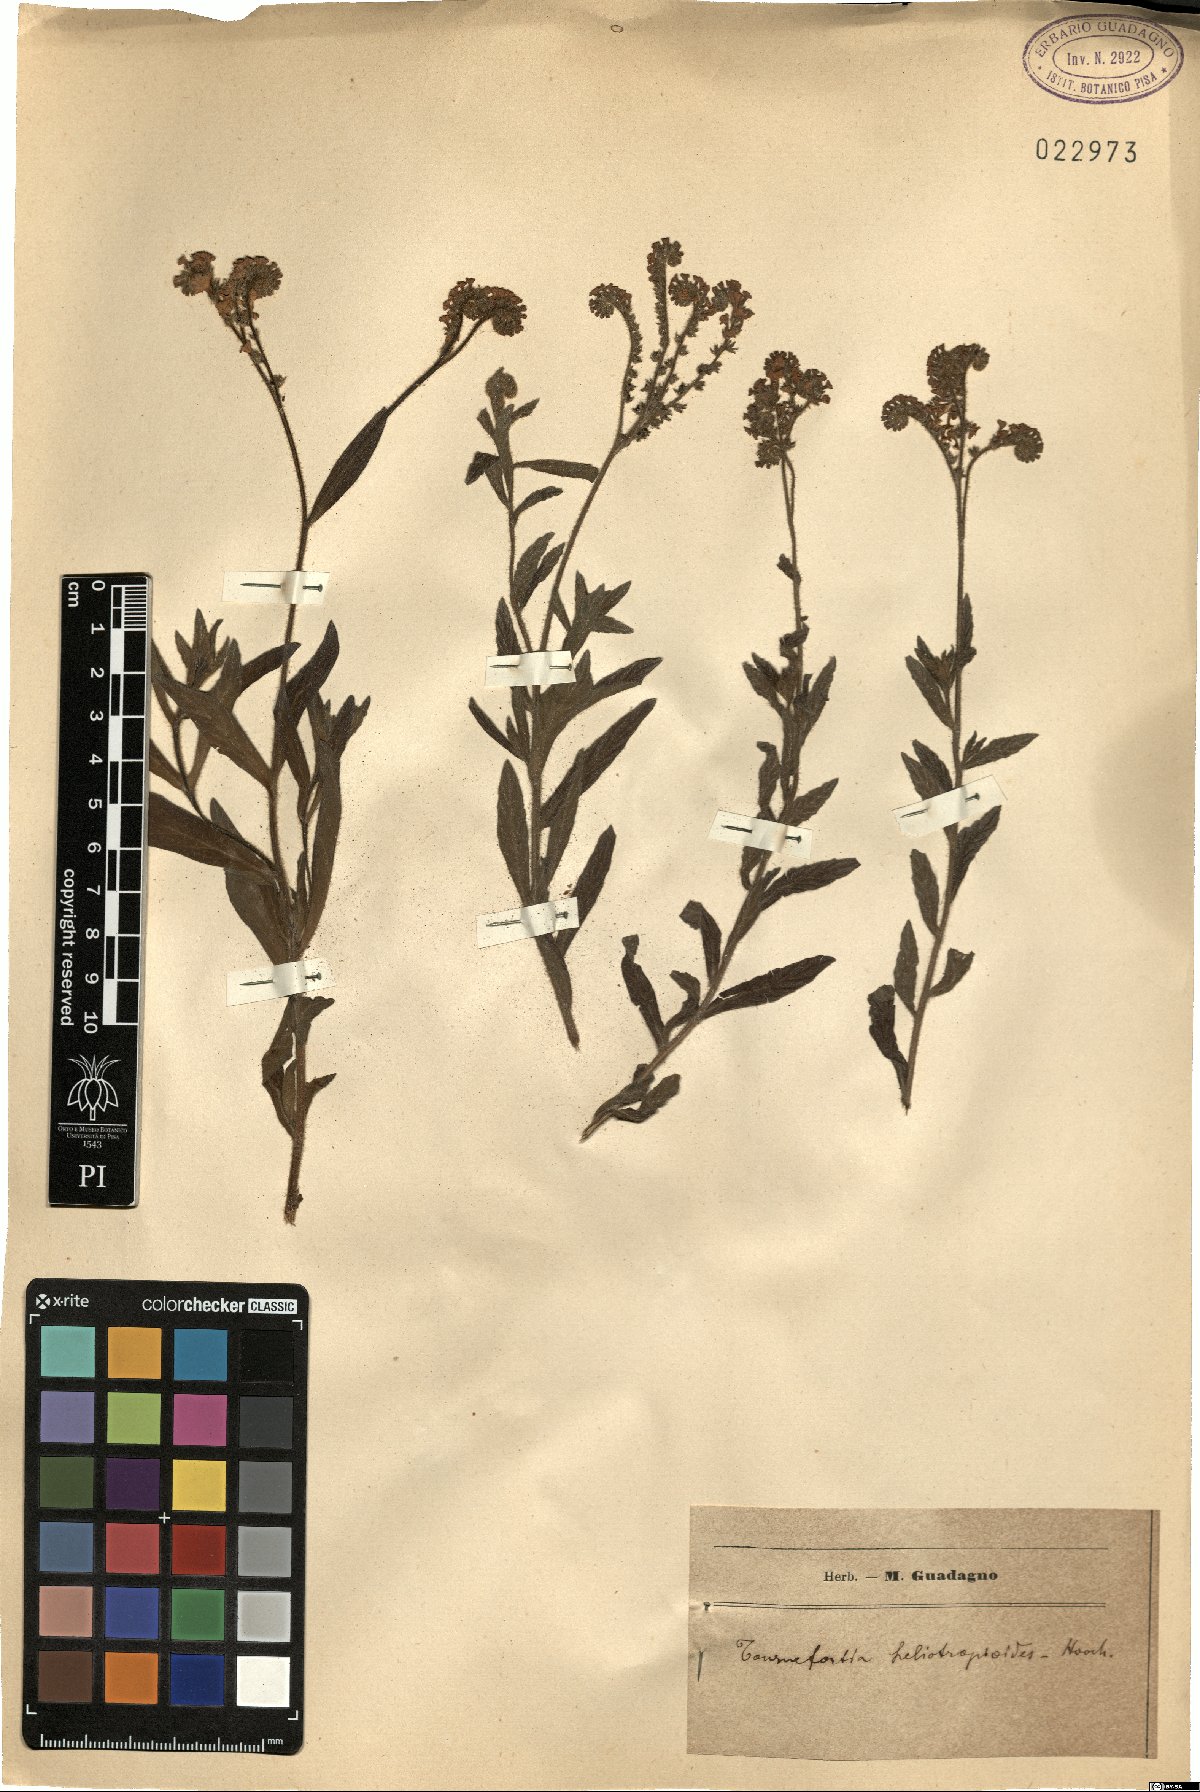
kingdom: Plantae
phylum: Tracheophyta
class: Magnoliopsida
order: Boraginales
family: Heliotropiaceae
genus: Heliotropium
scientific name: Heliotropium nicotianifolium
